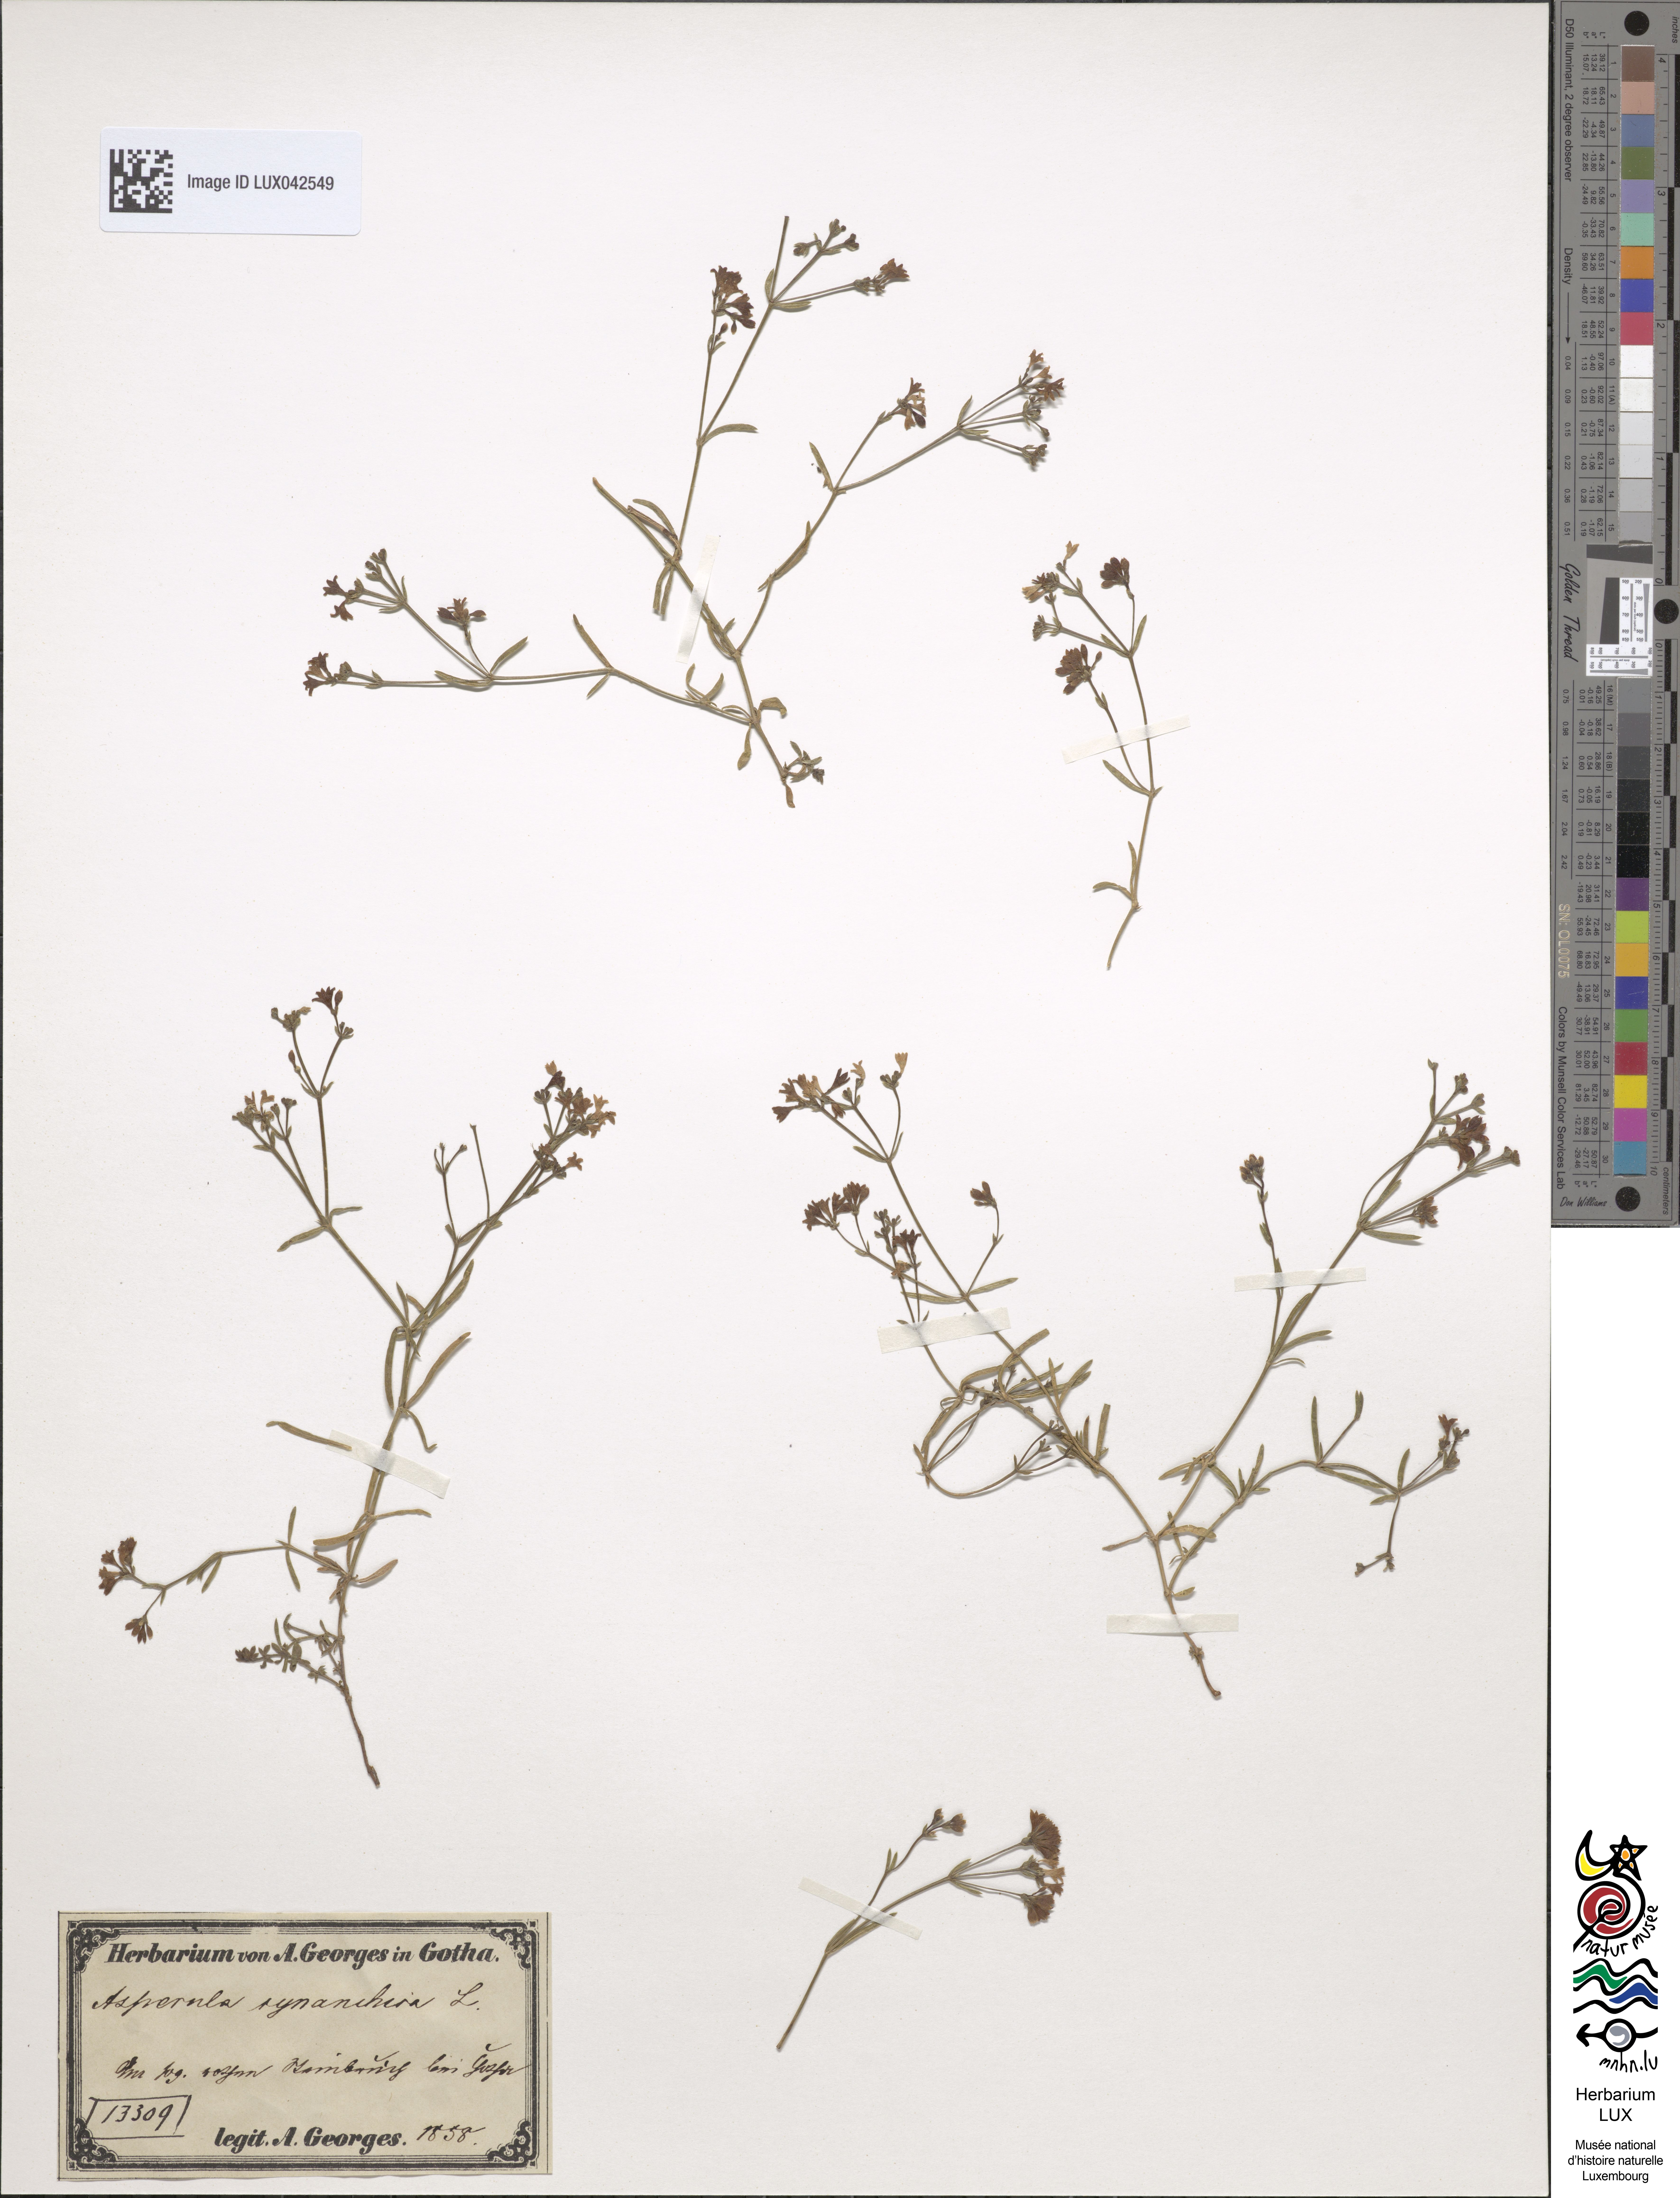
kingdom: Plantae
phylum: Tracheophyta
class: Magnoliopsida
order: Gentianales
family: Rubiaceae
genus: Cynanchica
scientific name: Cynanchica pyrenaica
